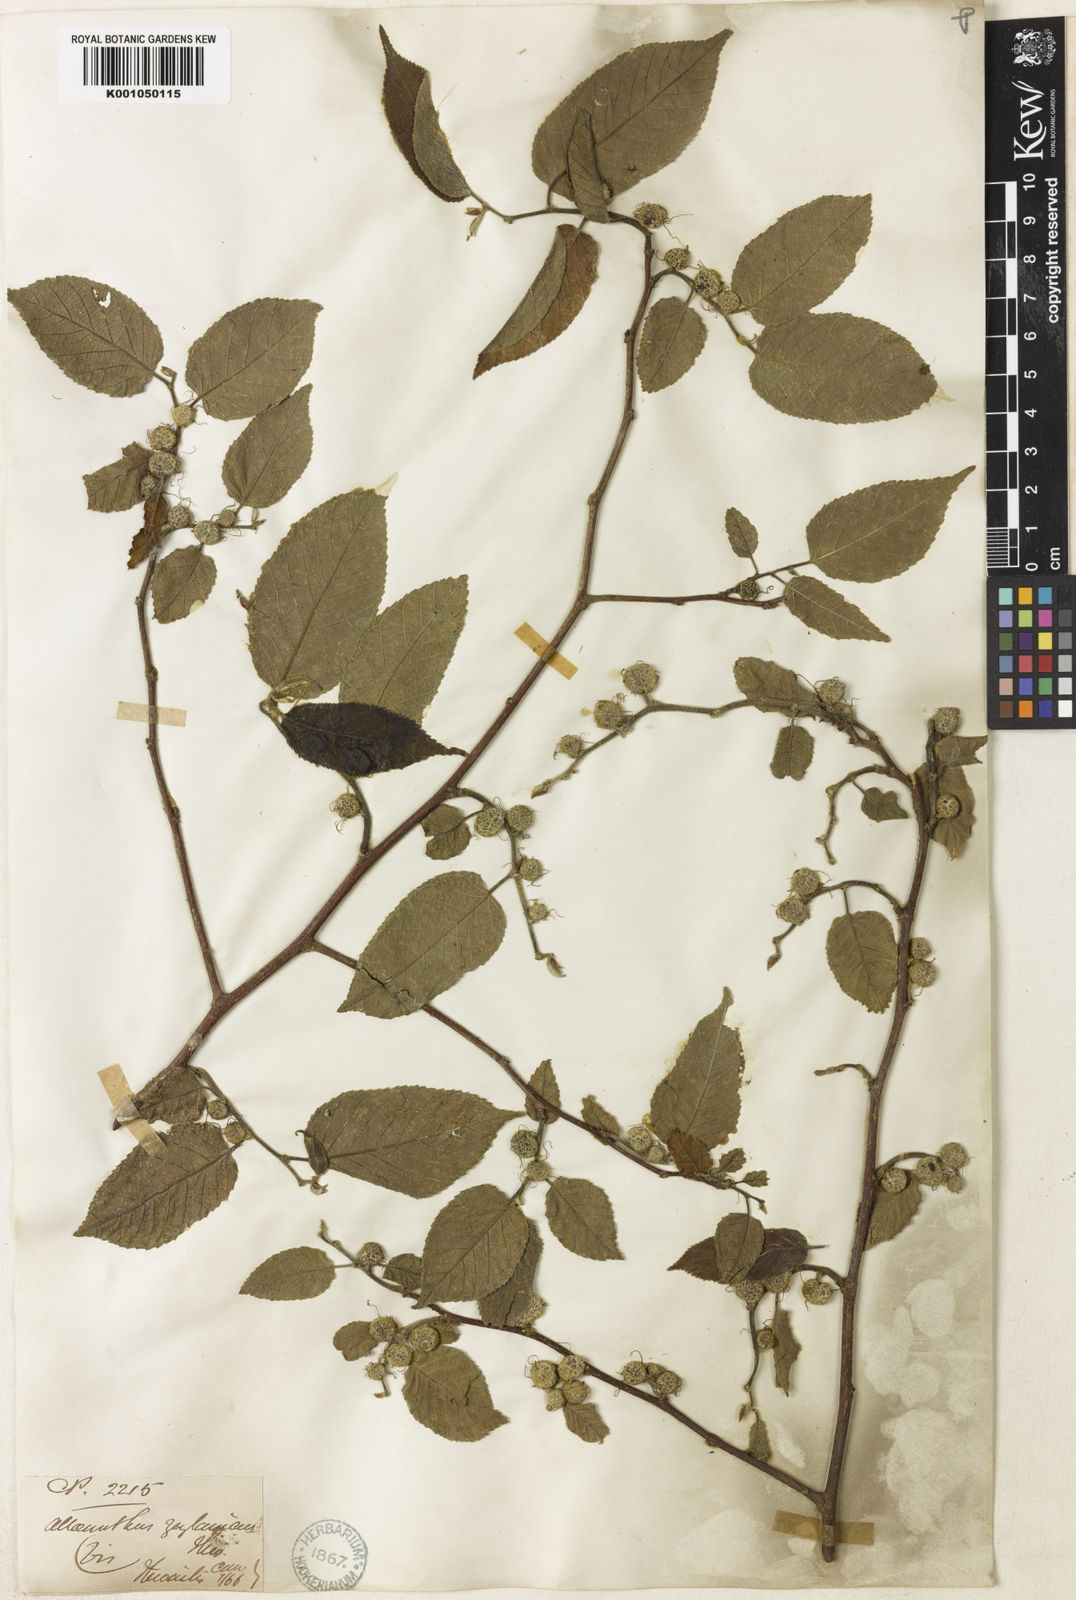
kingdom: Plantae
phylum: Tracheophyta
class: Magnoliopsida
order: Rosales
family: Moraceae
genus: Allaeanthus
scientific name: Allaeanthus zeylanicus
